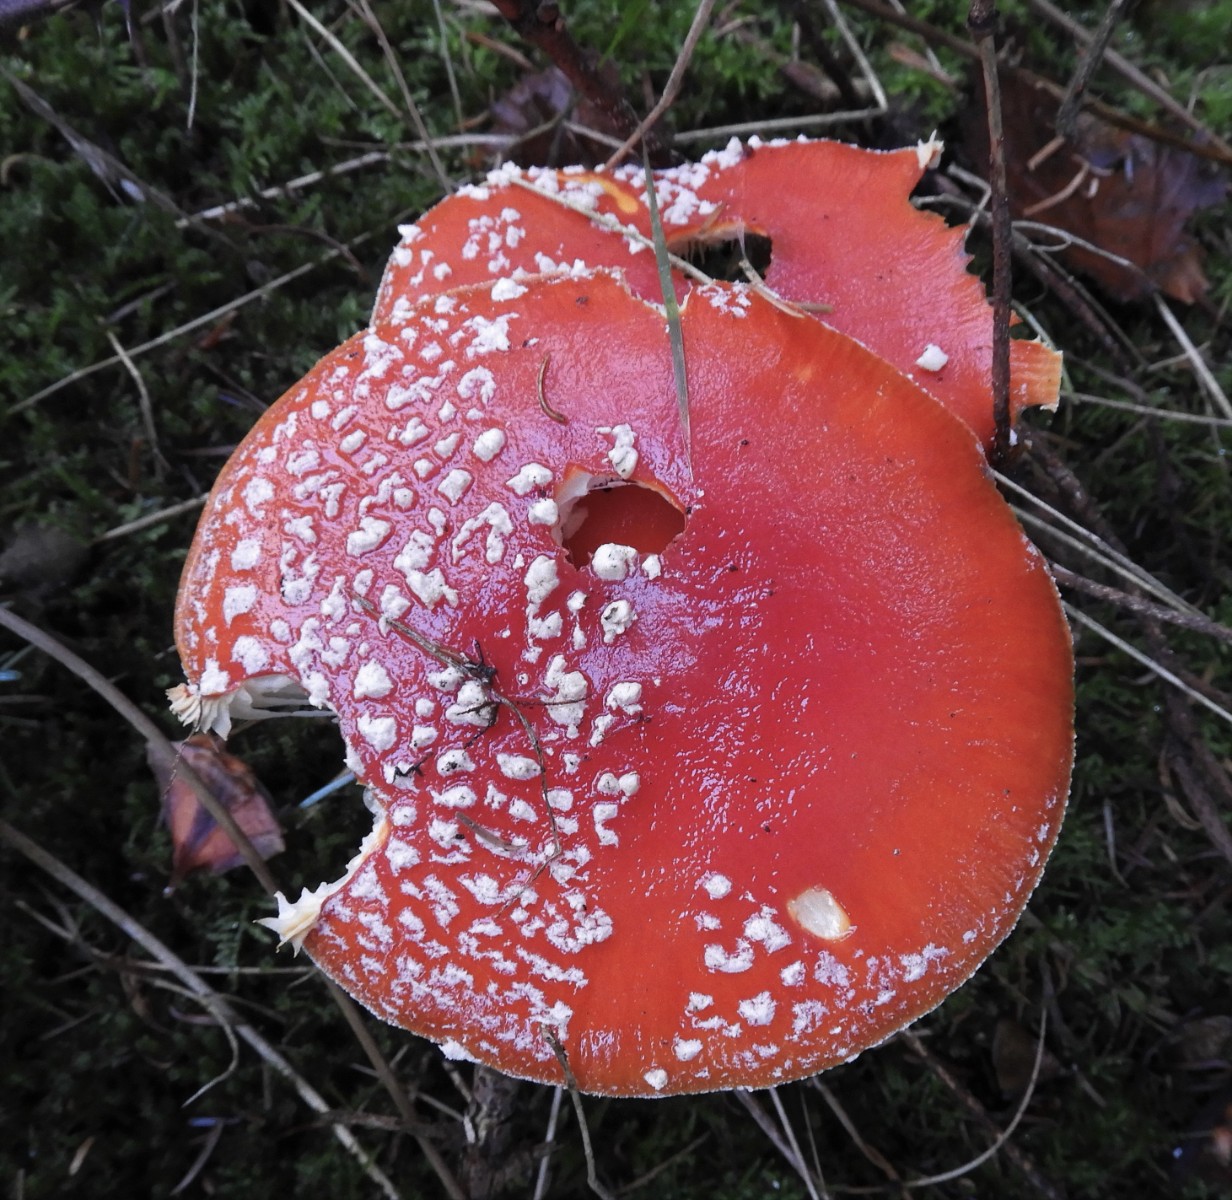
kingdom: Fungi
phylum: Basidiomycota
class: Agaricomycetes
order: Agaricales
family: Amanitaceae
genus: Amanita
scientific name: Amanita muscaria
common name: rød fluesvamp
